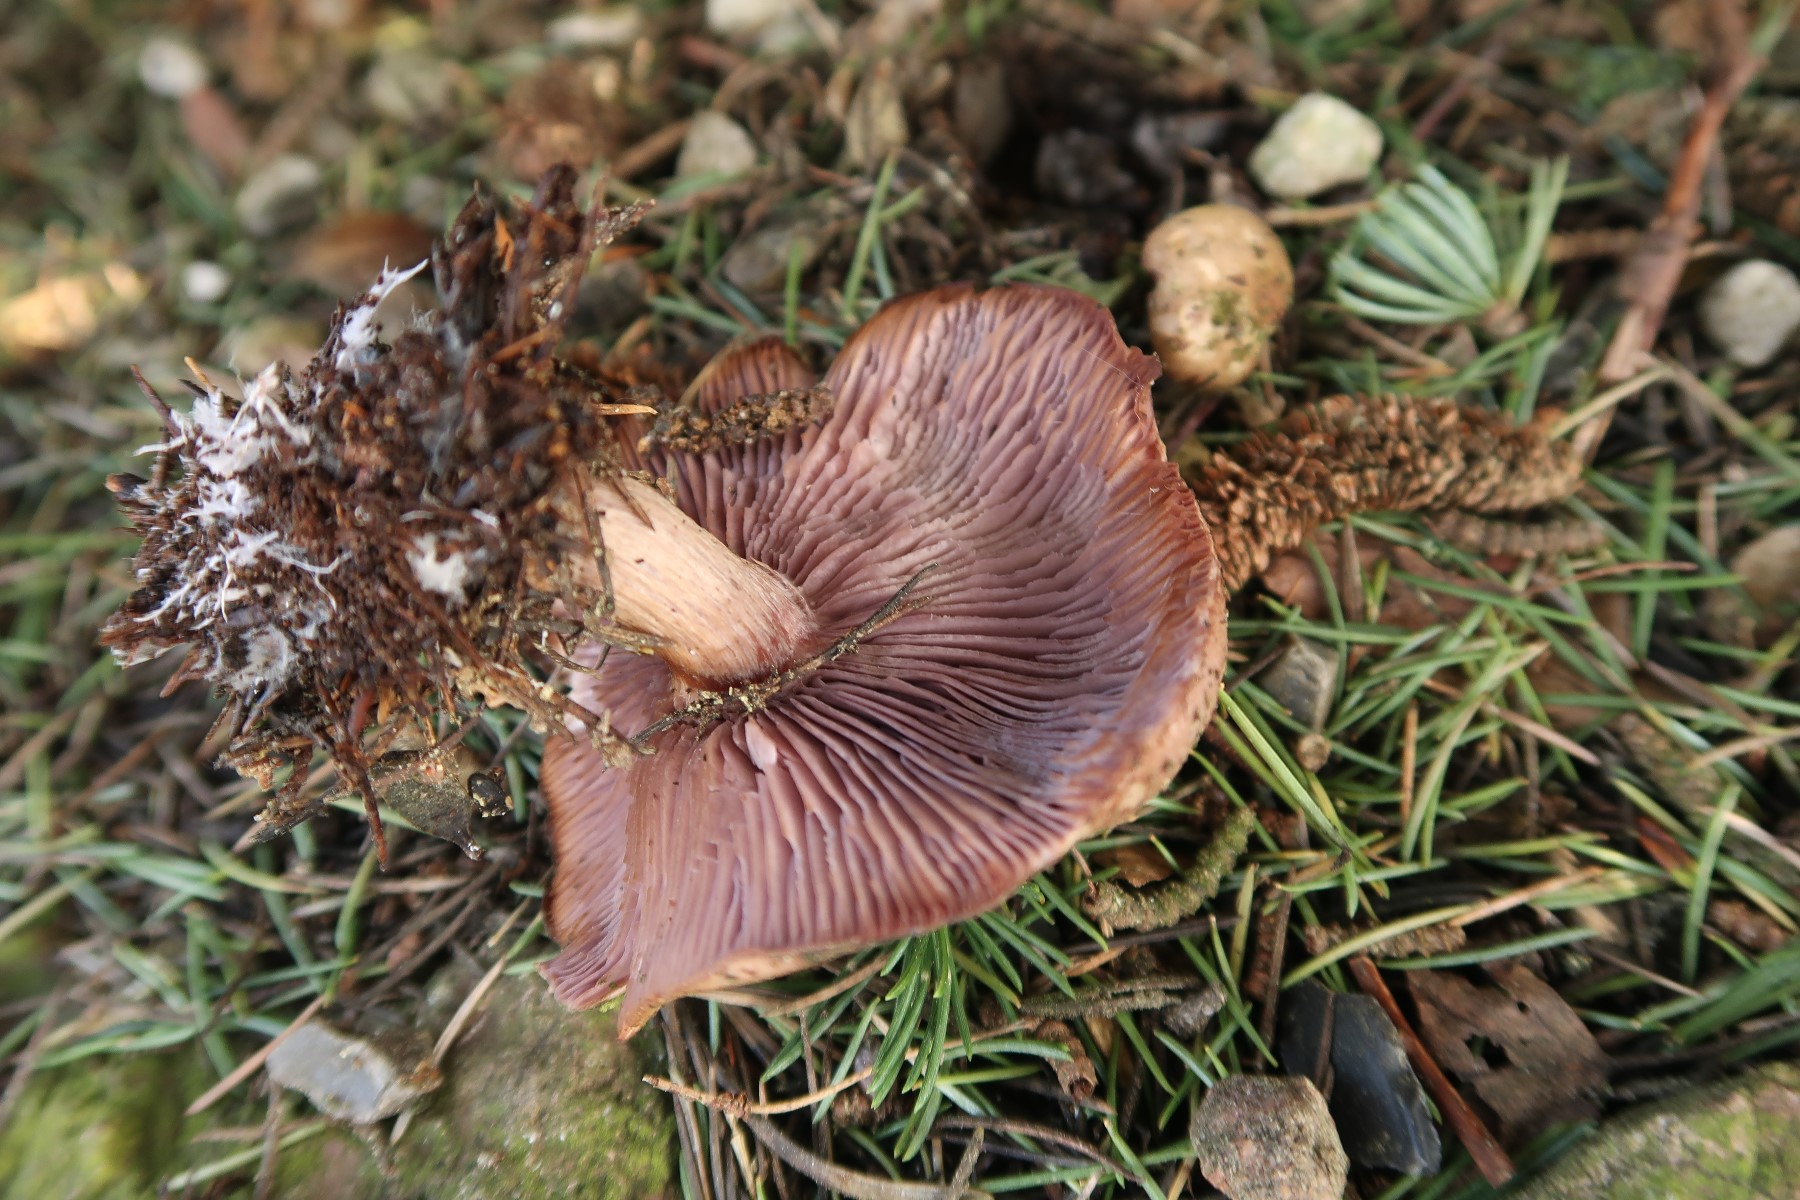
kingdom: Fungi
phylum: Basidiomycota
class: Agaricomycetes
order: Agaricales
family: Tricholomataceae
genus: Lepista
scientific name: Lepista nuda
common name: violet hekseringshat
